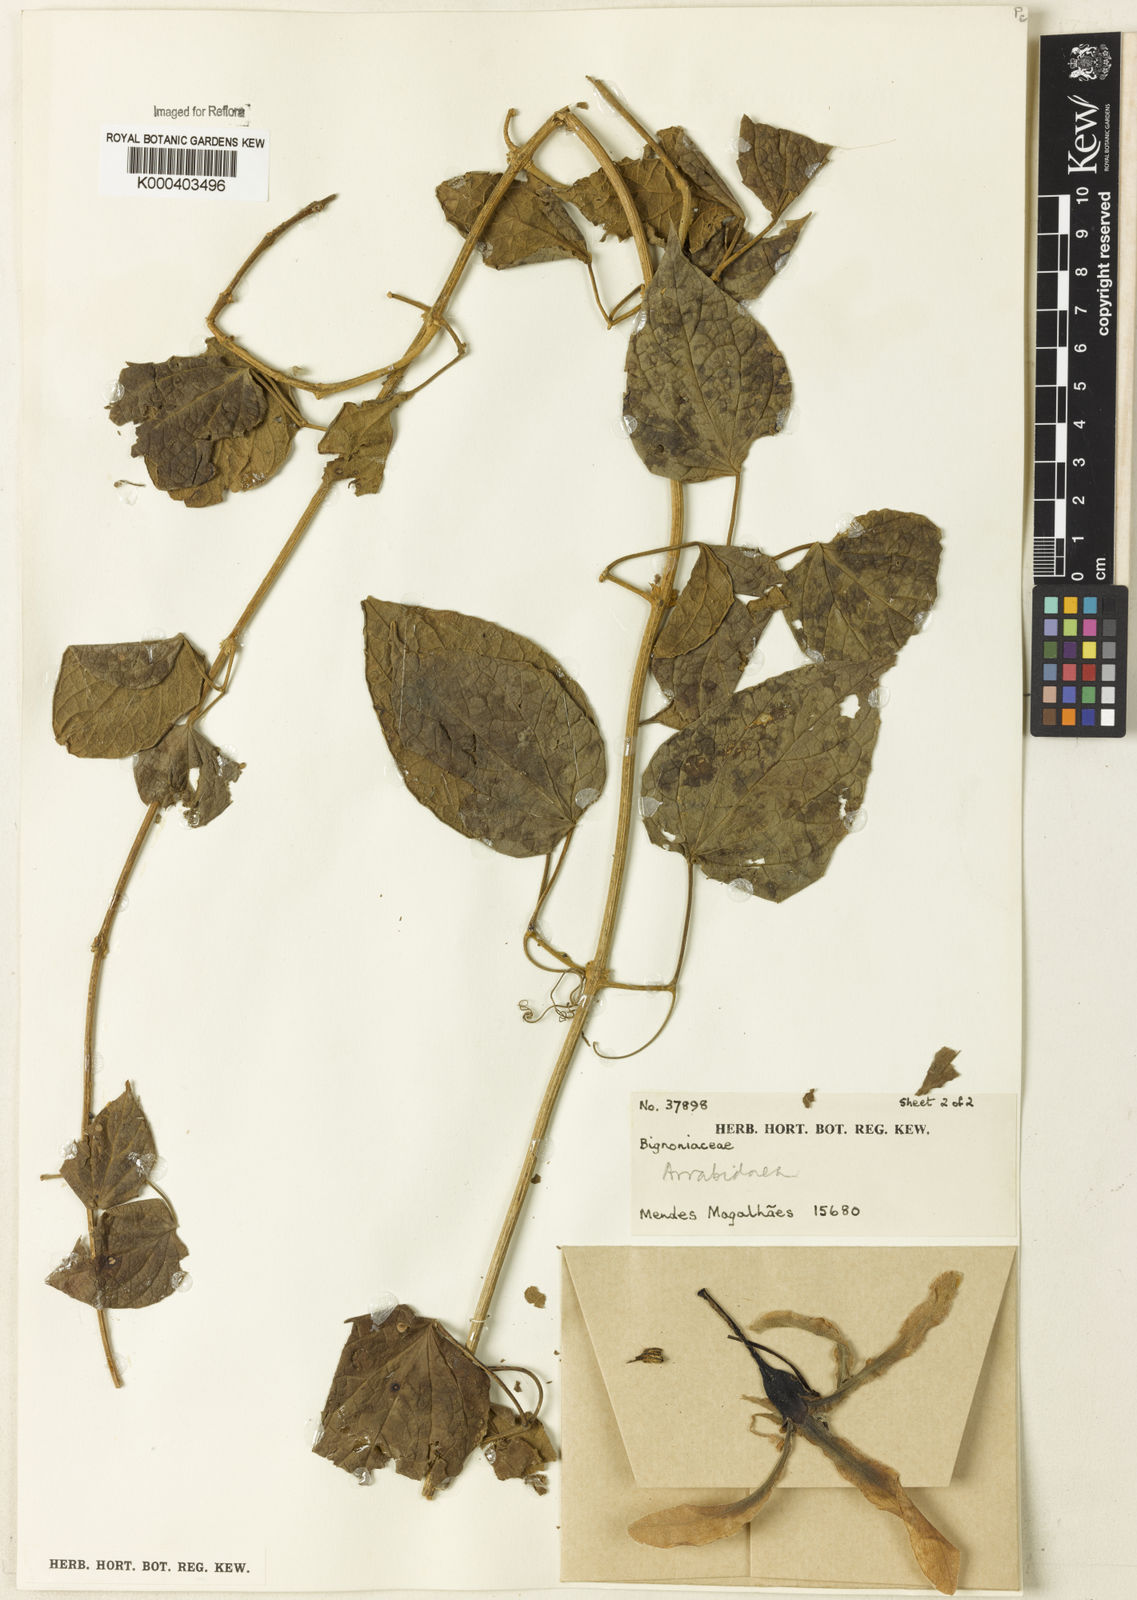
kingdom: Plantae
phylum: Tracheophyta
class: Magnoliopsida
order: Rosales
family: Rhamnaceae
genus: Arrabidaea
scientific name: Arrabidaea
